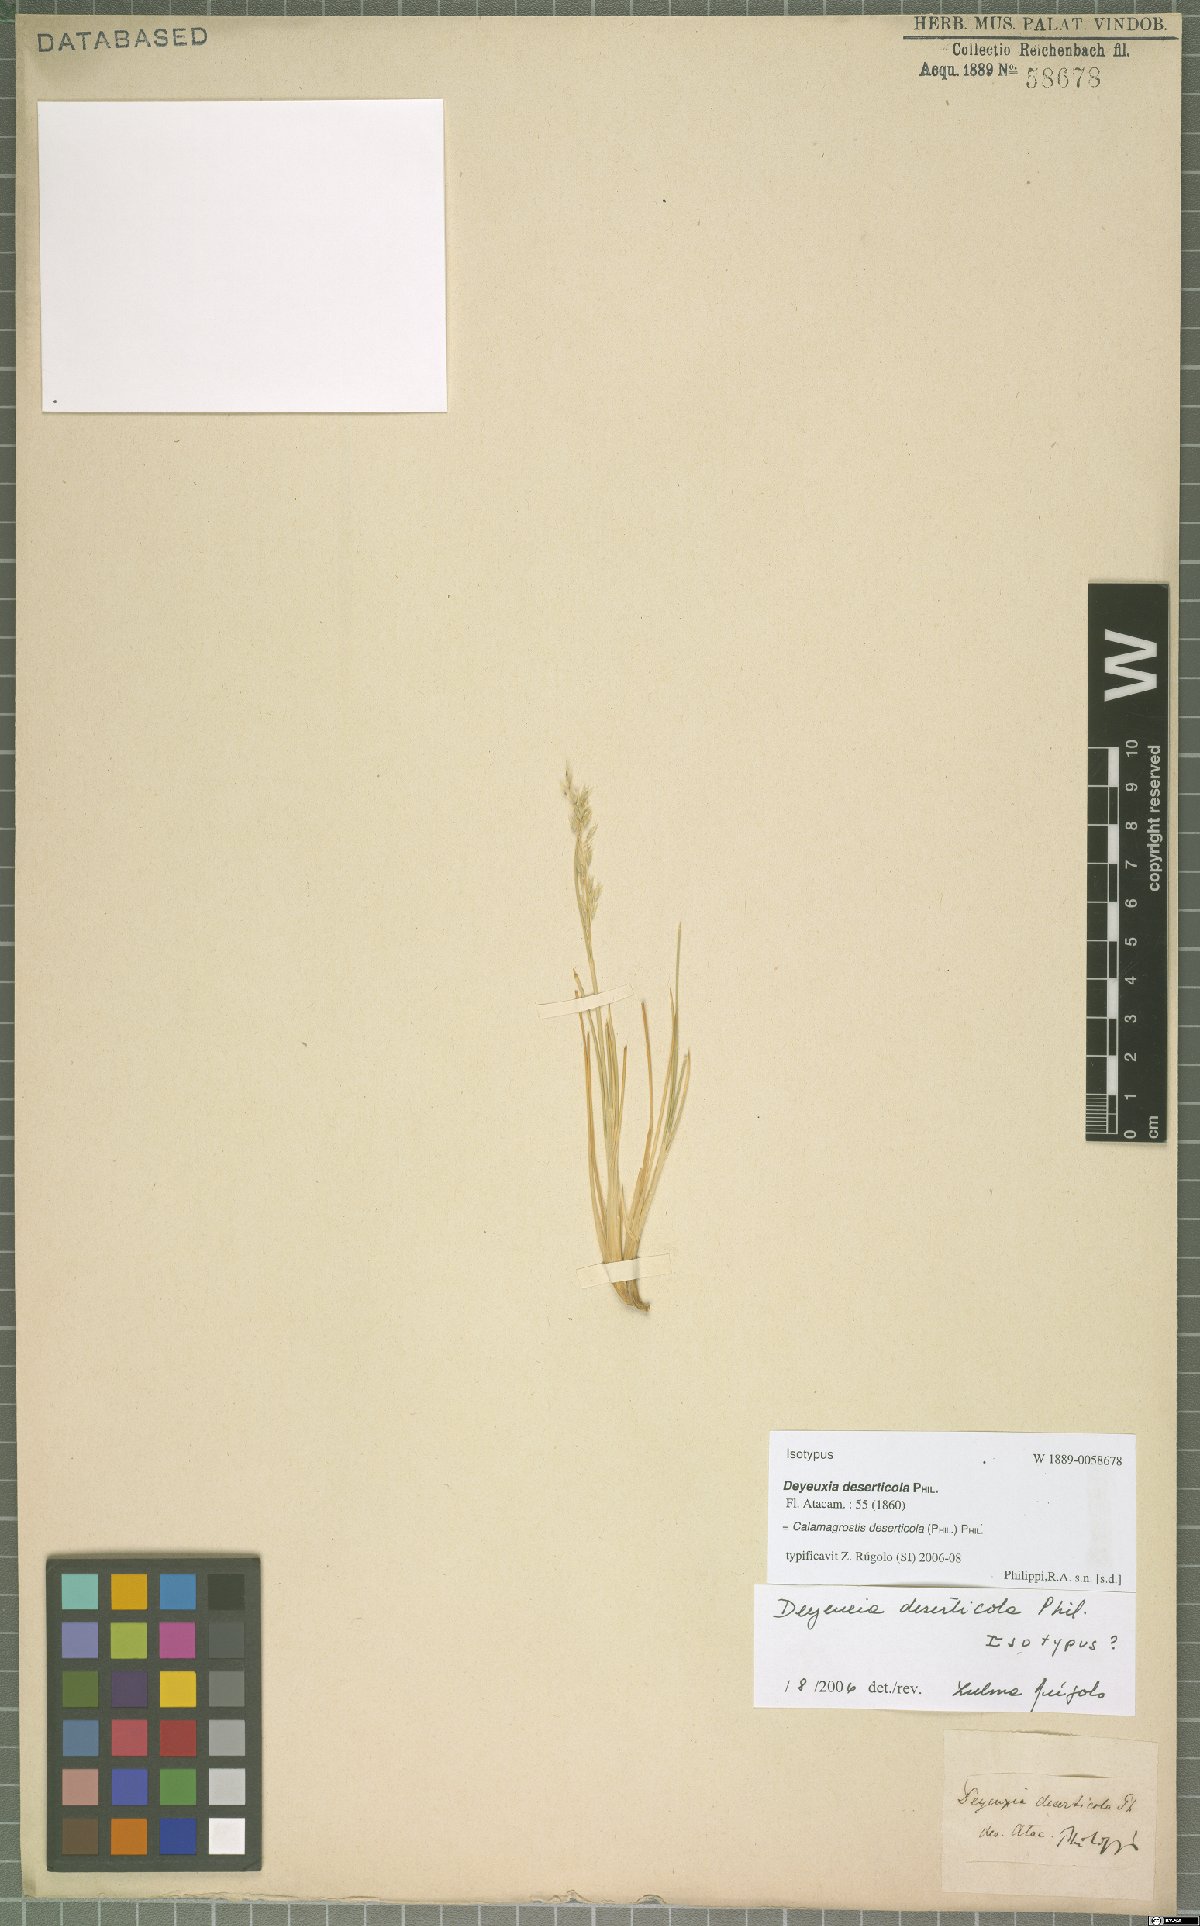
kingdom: Plantae
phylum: Tracheophyta
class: Liliopsida
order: Poales
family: Poaceae
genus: Cinnagrostis
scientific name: Cinnagrostis deserticola
